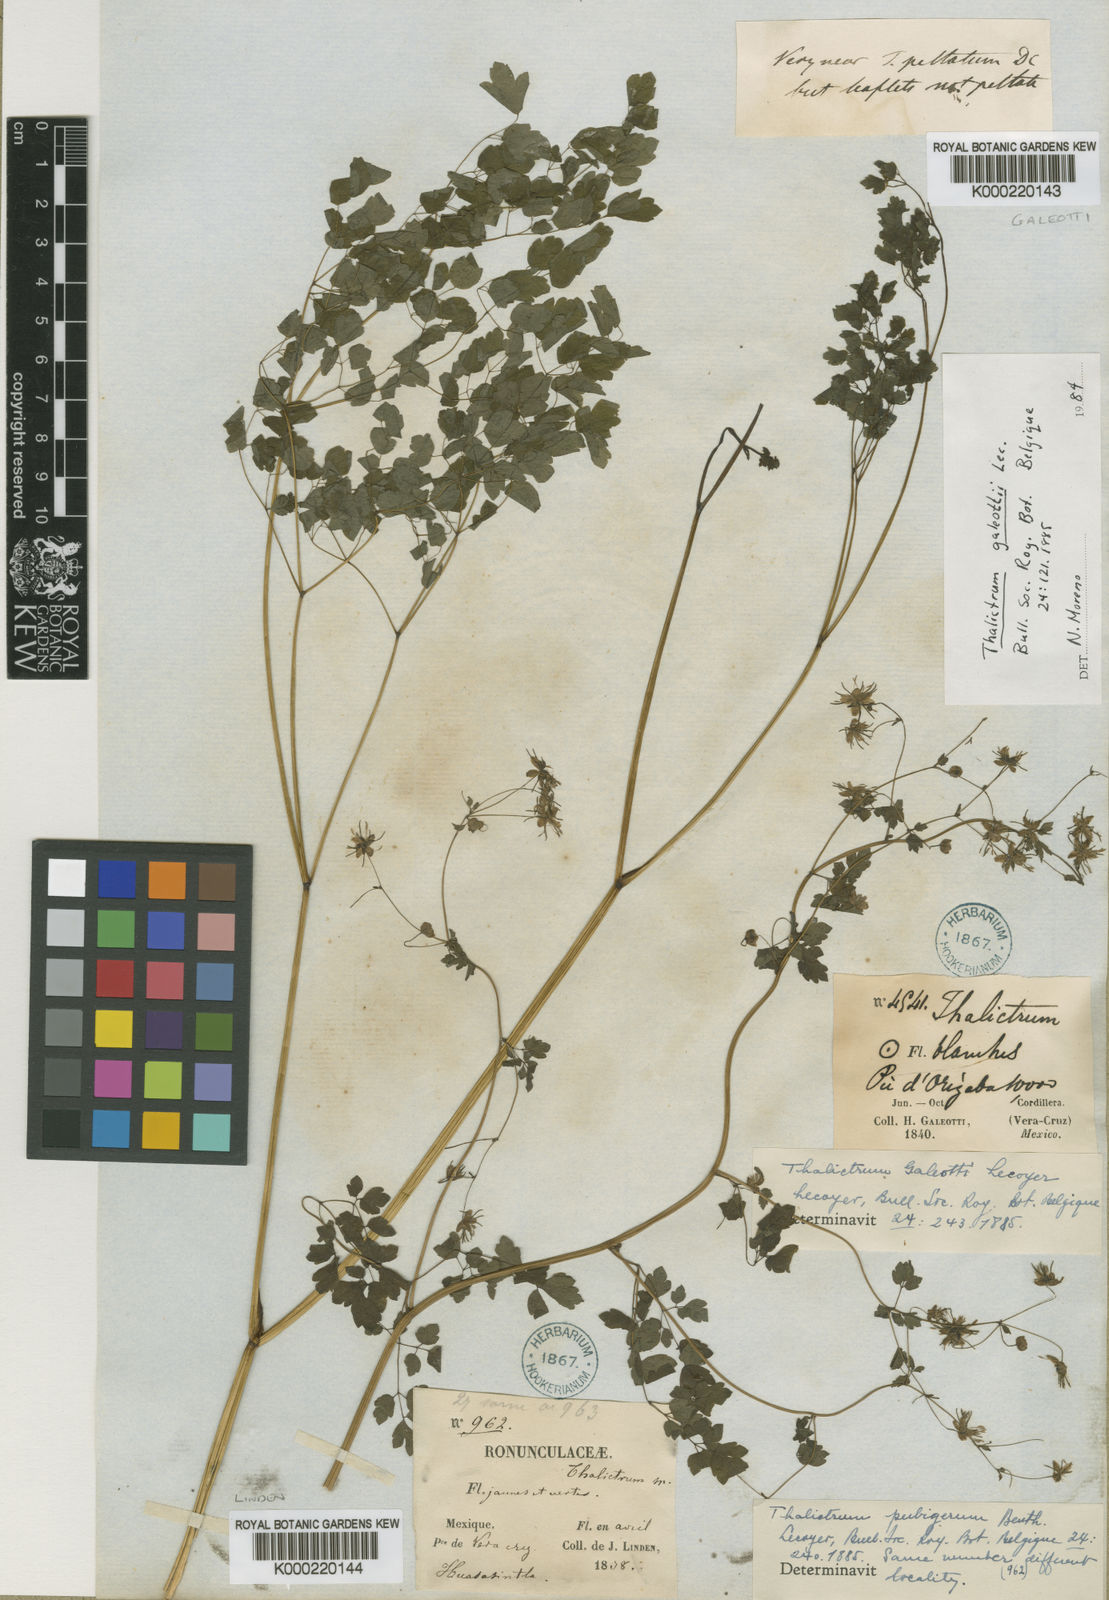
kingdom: Plantae
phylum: Tracheophyta
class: Magnoliopsida
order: Ranunculales
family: Ranunculaceae
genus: Thalictrum
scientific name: Thalictrum galeottii
